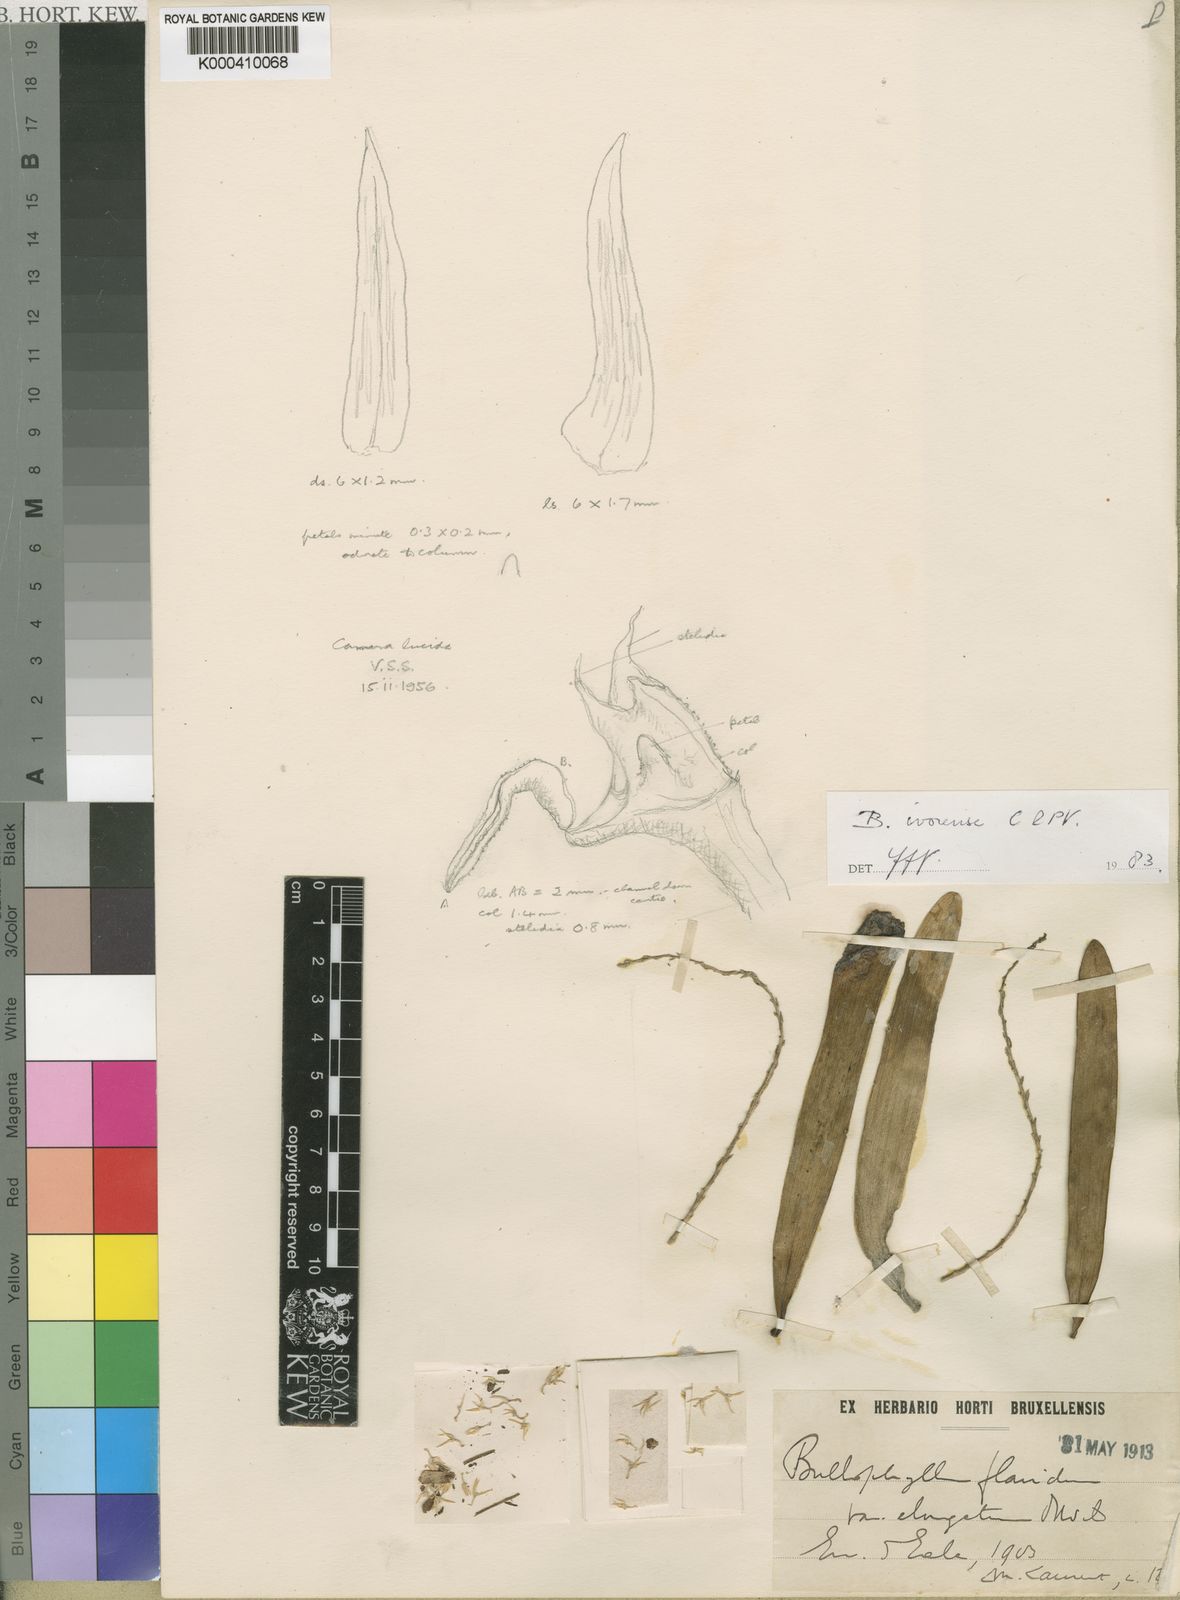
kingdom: Plantae
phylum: Tracheophyta
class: Liliopsida
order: Asparagales
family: Orchidaceae
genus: Bulbophyllum
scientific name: Bulbophyllum ivorense
